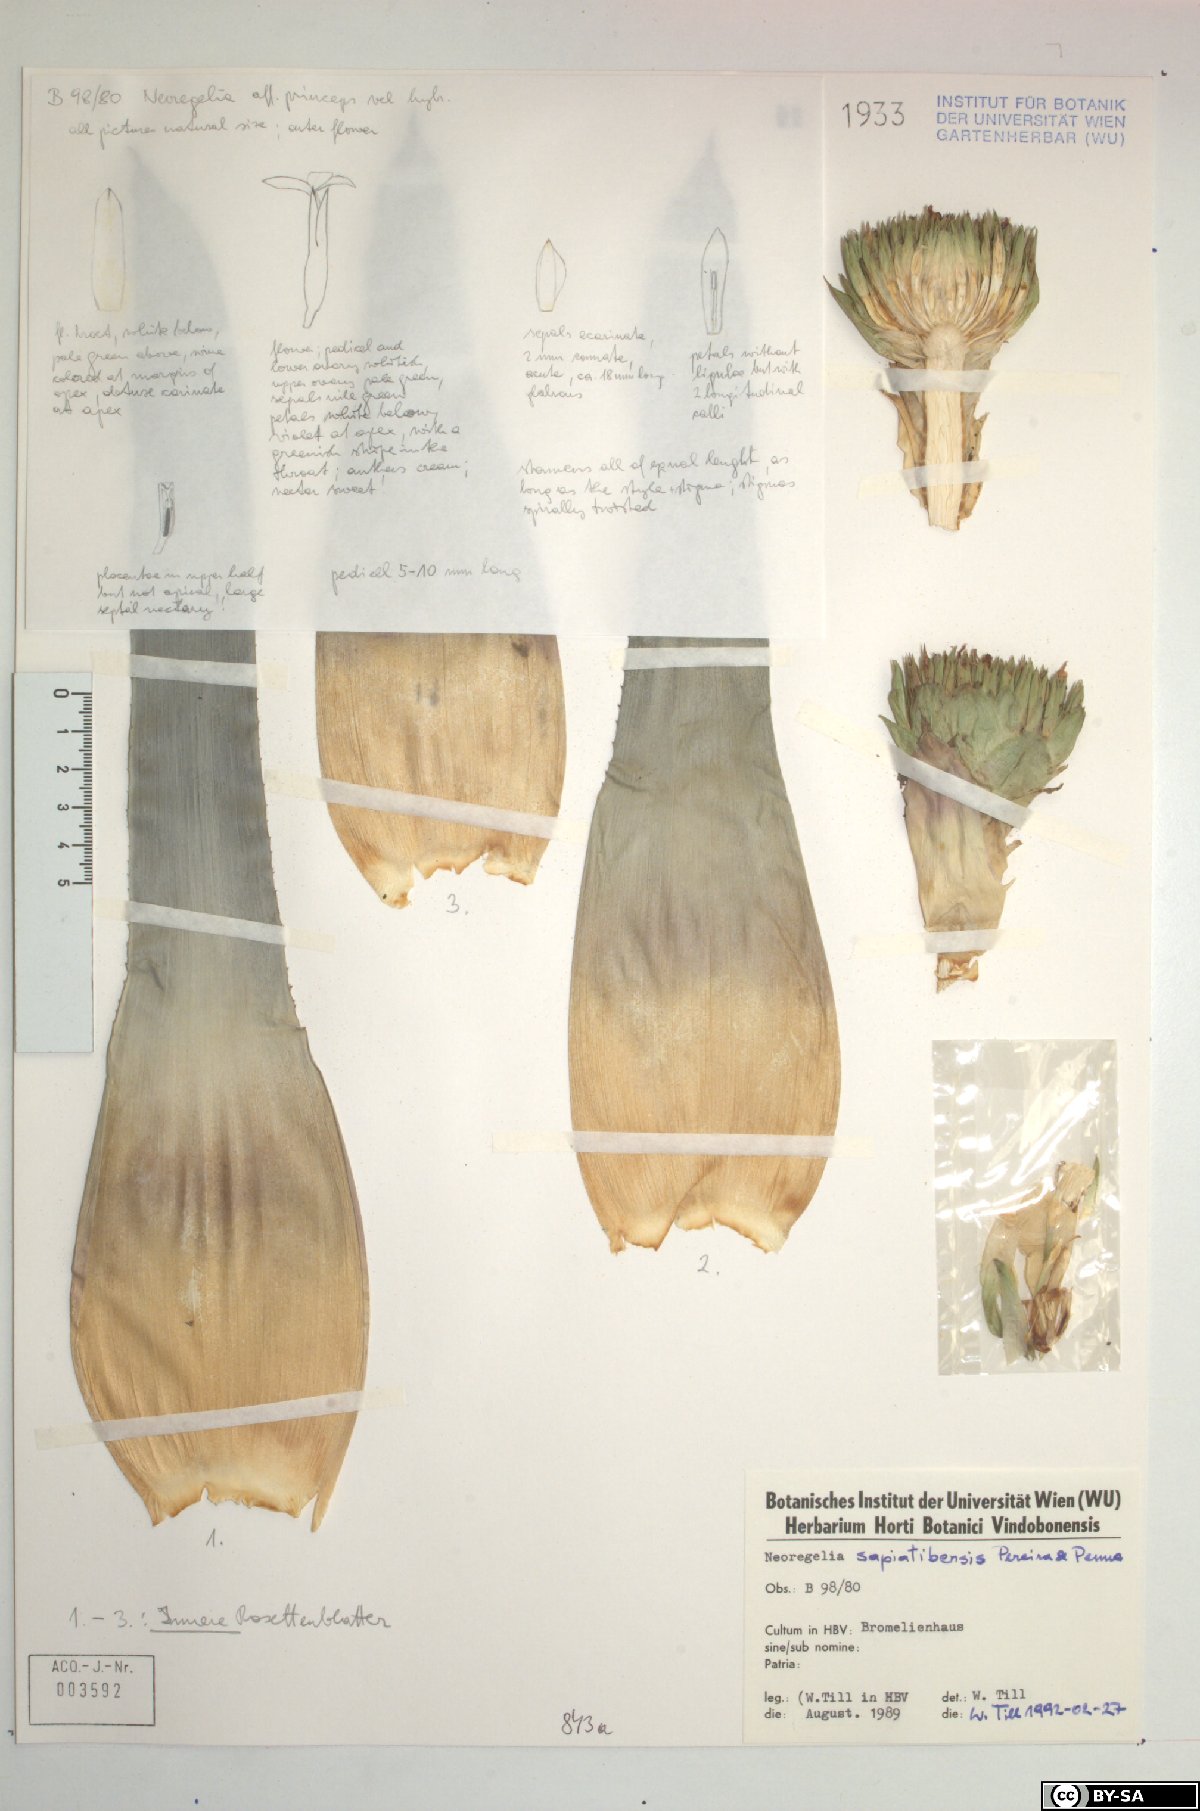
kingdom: Plantae
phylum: Tracheophyta
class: Liliopsida
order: Poales
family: Bromeliaceae
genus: Neoregelia
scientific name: Neoregelia sapiatibensis
